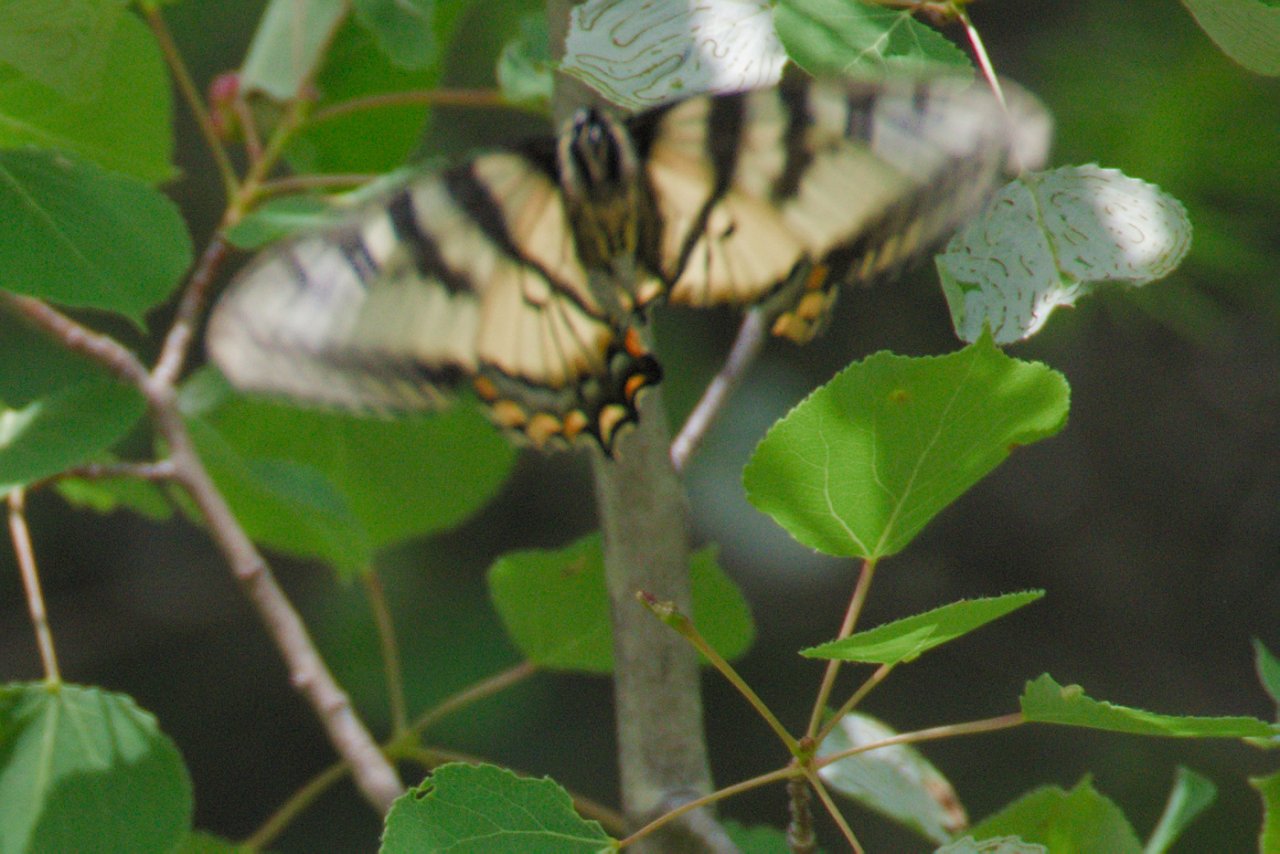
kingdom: Animalia
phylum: Arthropoda
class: Insecta
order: Lepidoptera
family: Papilionidae
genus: Pterourus
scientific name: Pterourus canadensis
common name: Canadian Tiger Swallowtail
